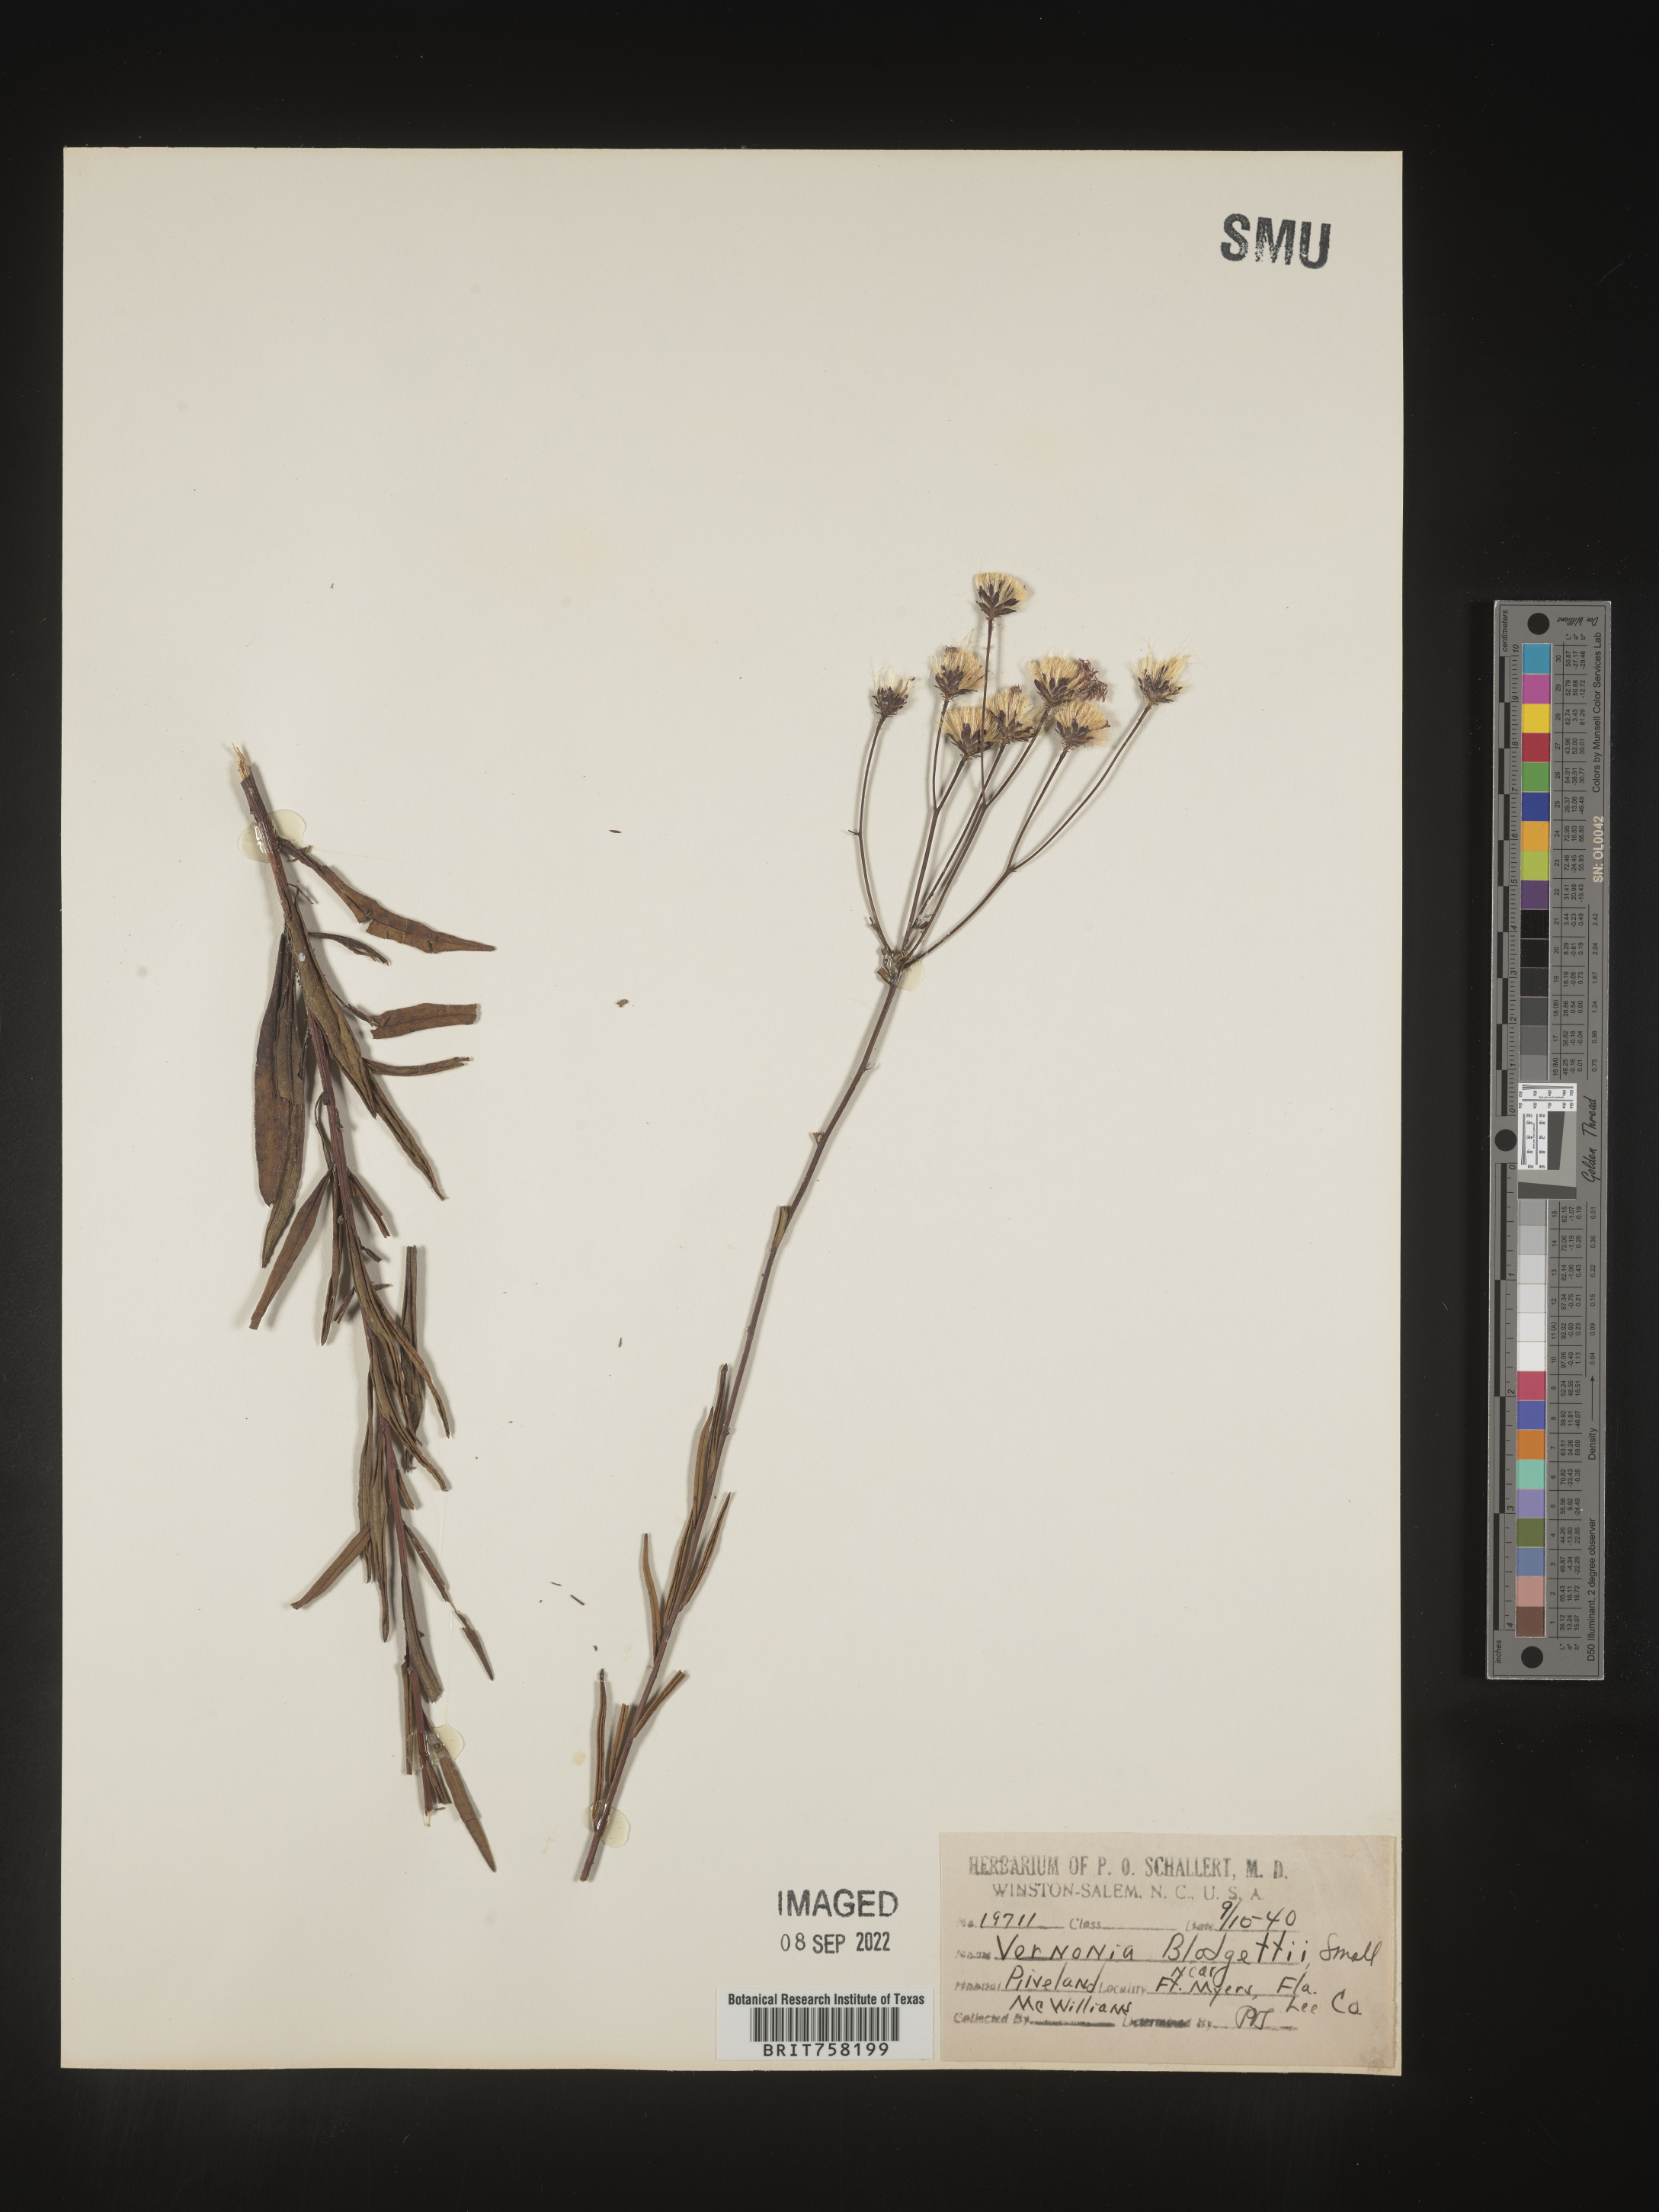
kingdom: Plantae
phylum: Tracheophyta
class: Magnoliopsida
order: Asterales
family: Asteraceae
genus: Vernonia
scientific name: Vernonia blodgettii
